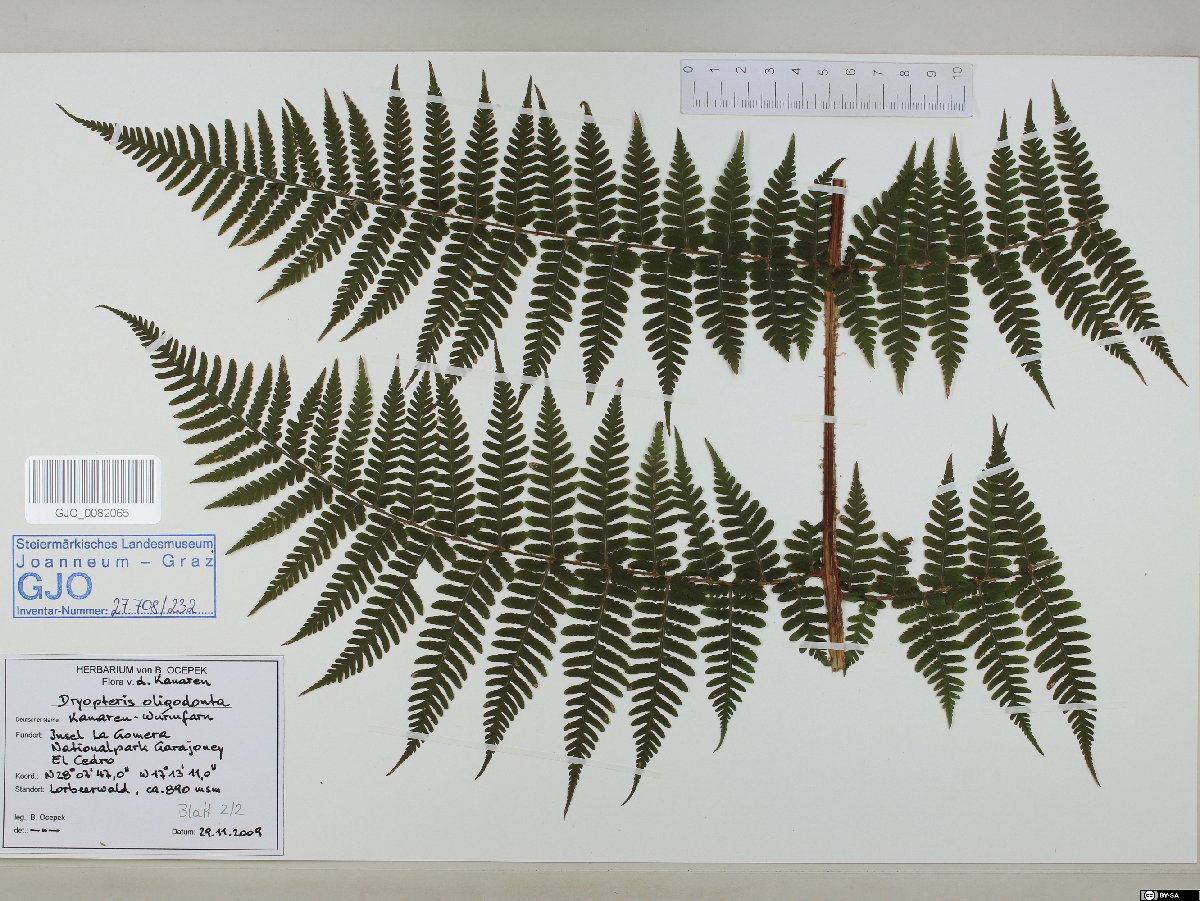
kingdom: Plantae
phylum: Tracheophyta
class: Polypodiopsida
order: Polypodiales
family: Dryopteridaceae
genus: Dryopteris
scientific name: Dryopteris oligodonta
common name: Canarian male-fern
